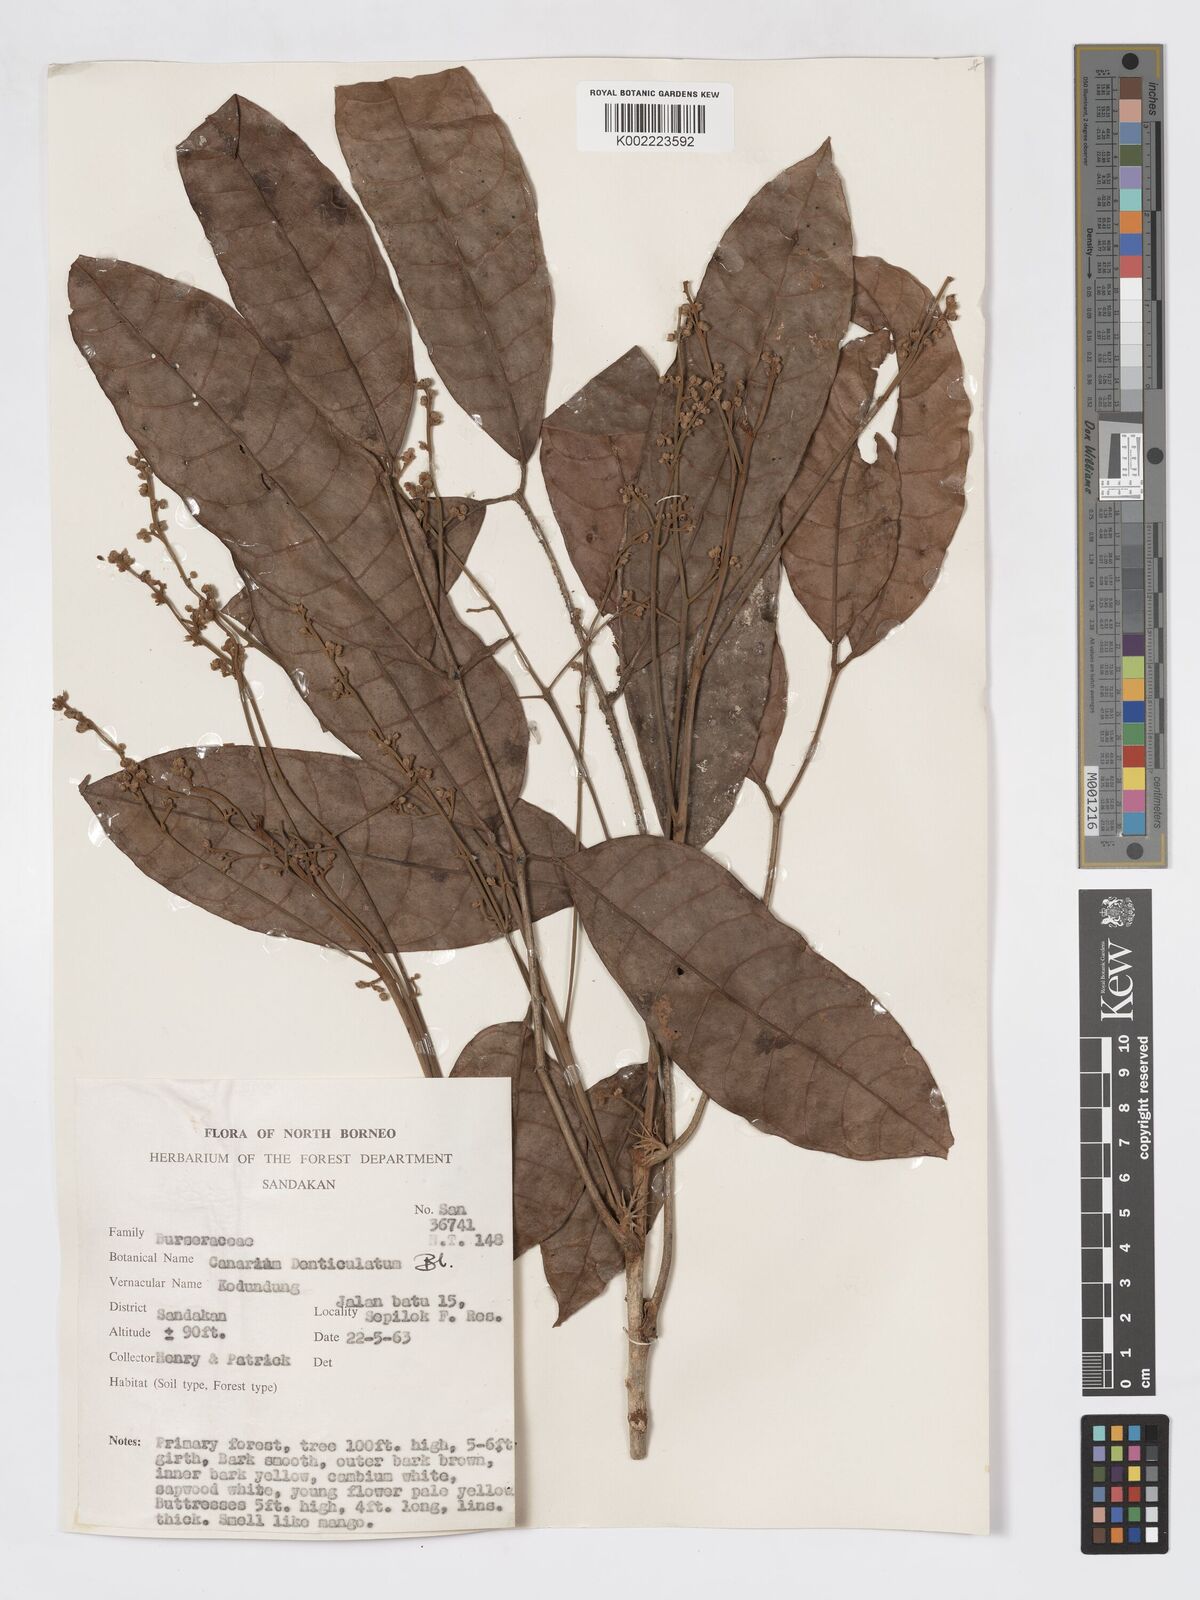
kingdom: Plantae
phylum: Tracheophyta
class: Magnoliopsida
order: Sapindales
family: Burseraceae
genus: Canarium
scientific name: Canarium denticulatum
